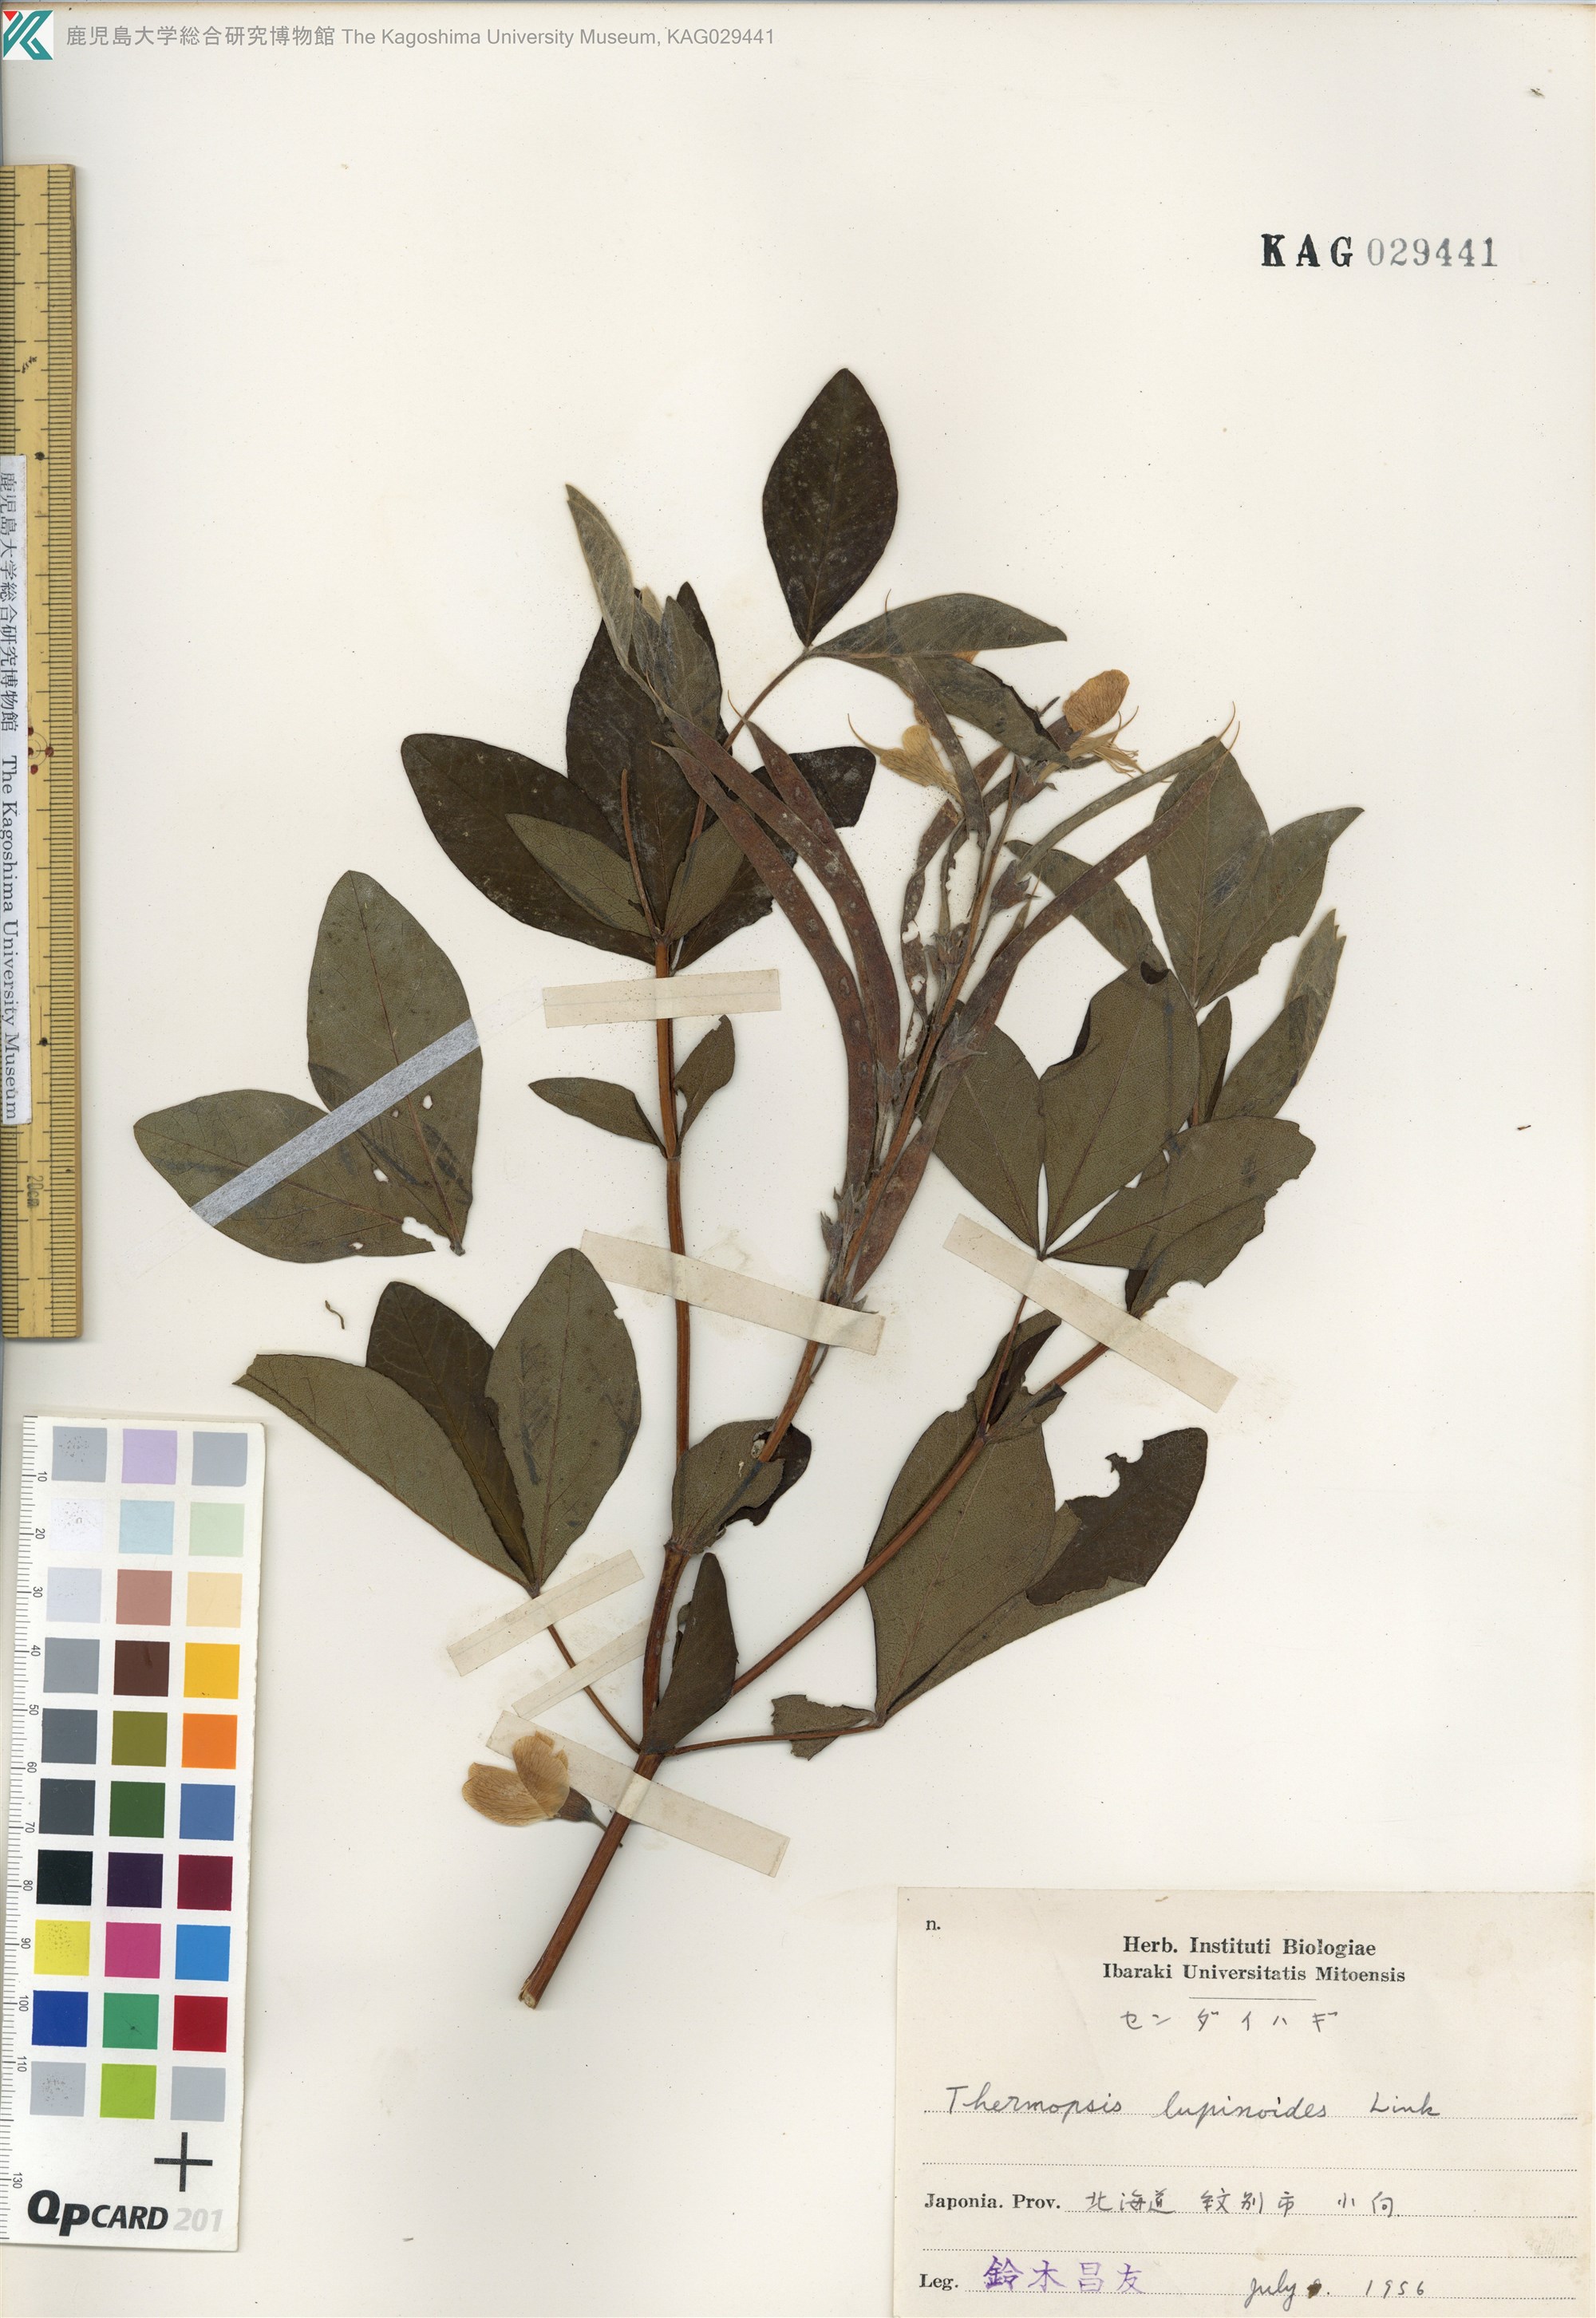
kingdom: Plantae
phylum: Tracheophyta
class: Magnoliopsida
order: Fabales
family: Fabaceae
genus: Thermopsis
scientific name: Thermopsis lanceolata
